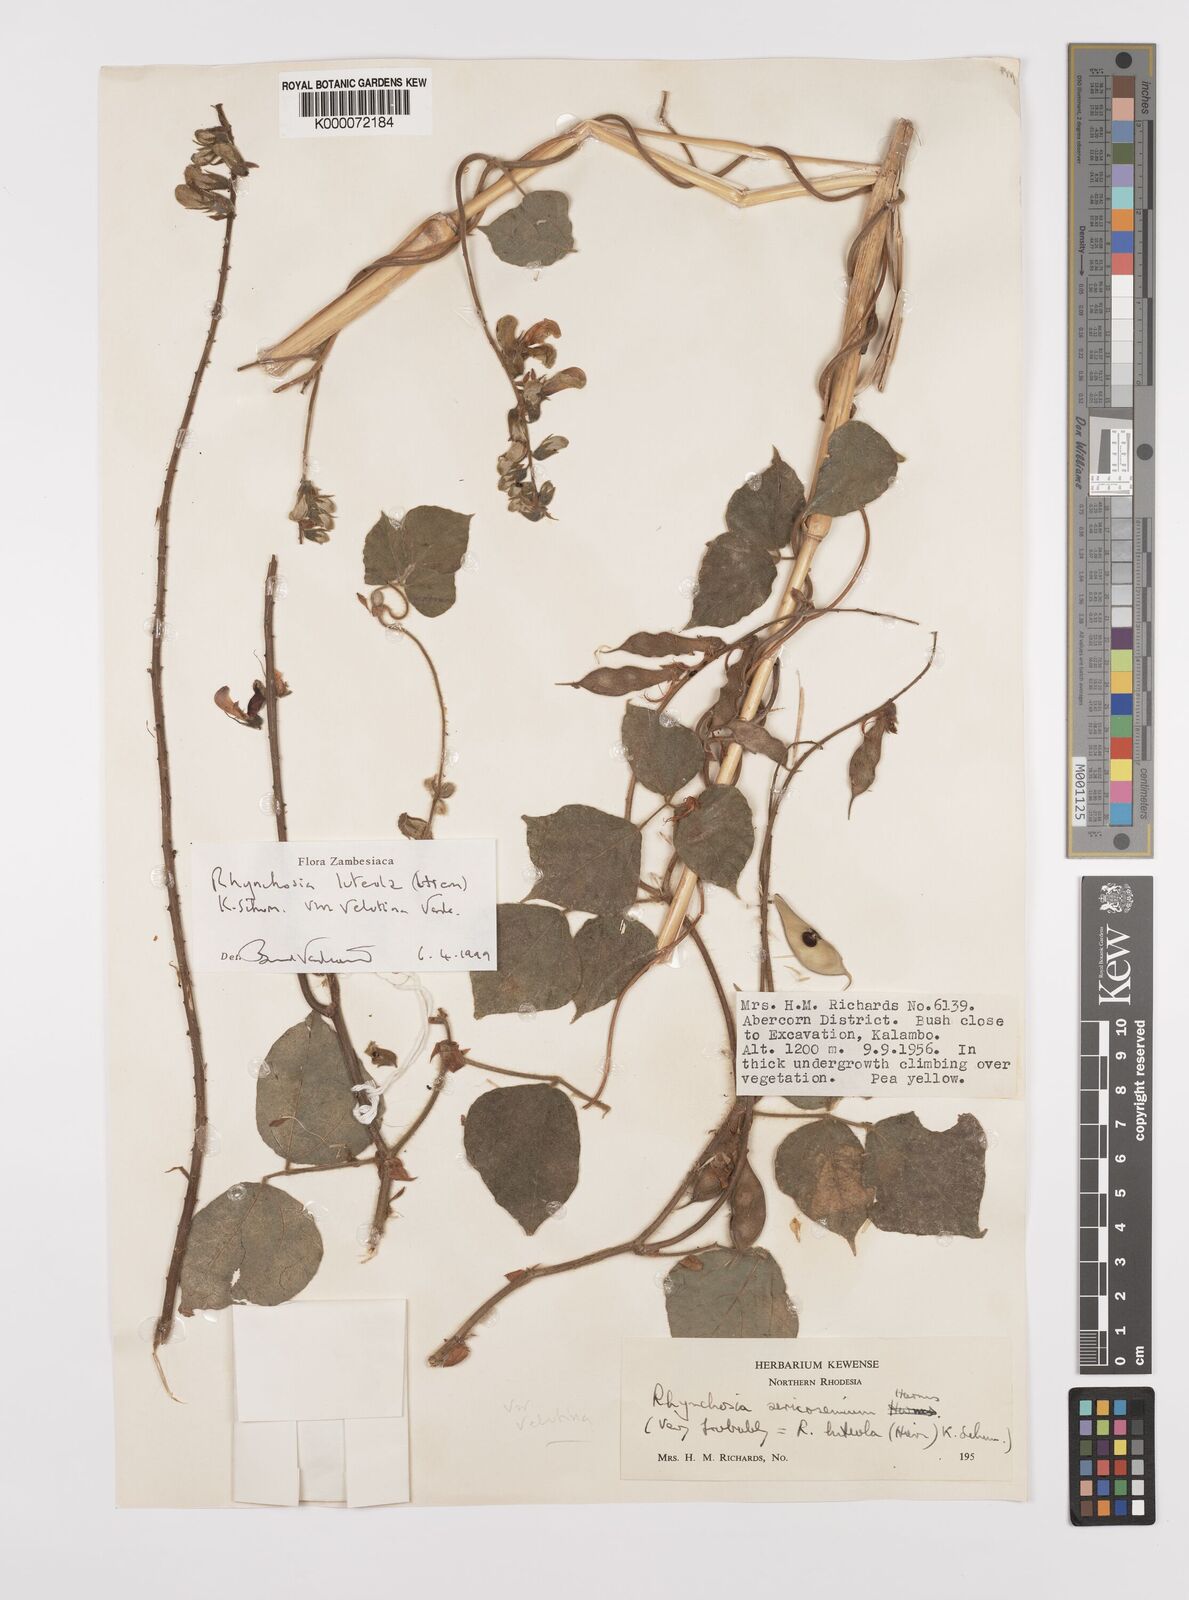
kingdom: Plantae
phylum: Tracheophyta
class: Magnoliopsida
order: Fabales
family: Fabaceae
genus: Rhynchosia
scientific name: Rhynchosia luteola
